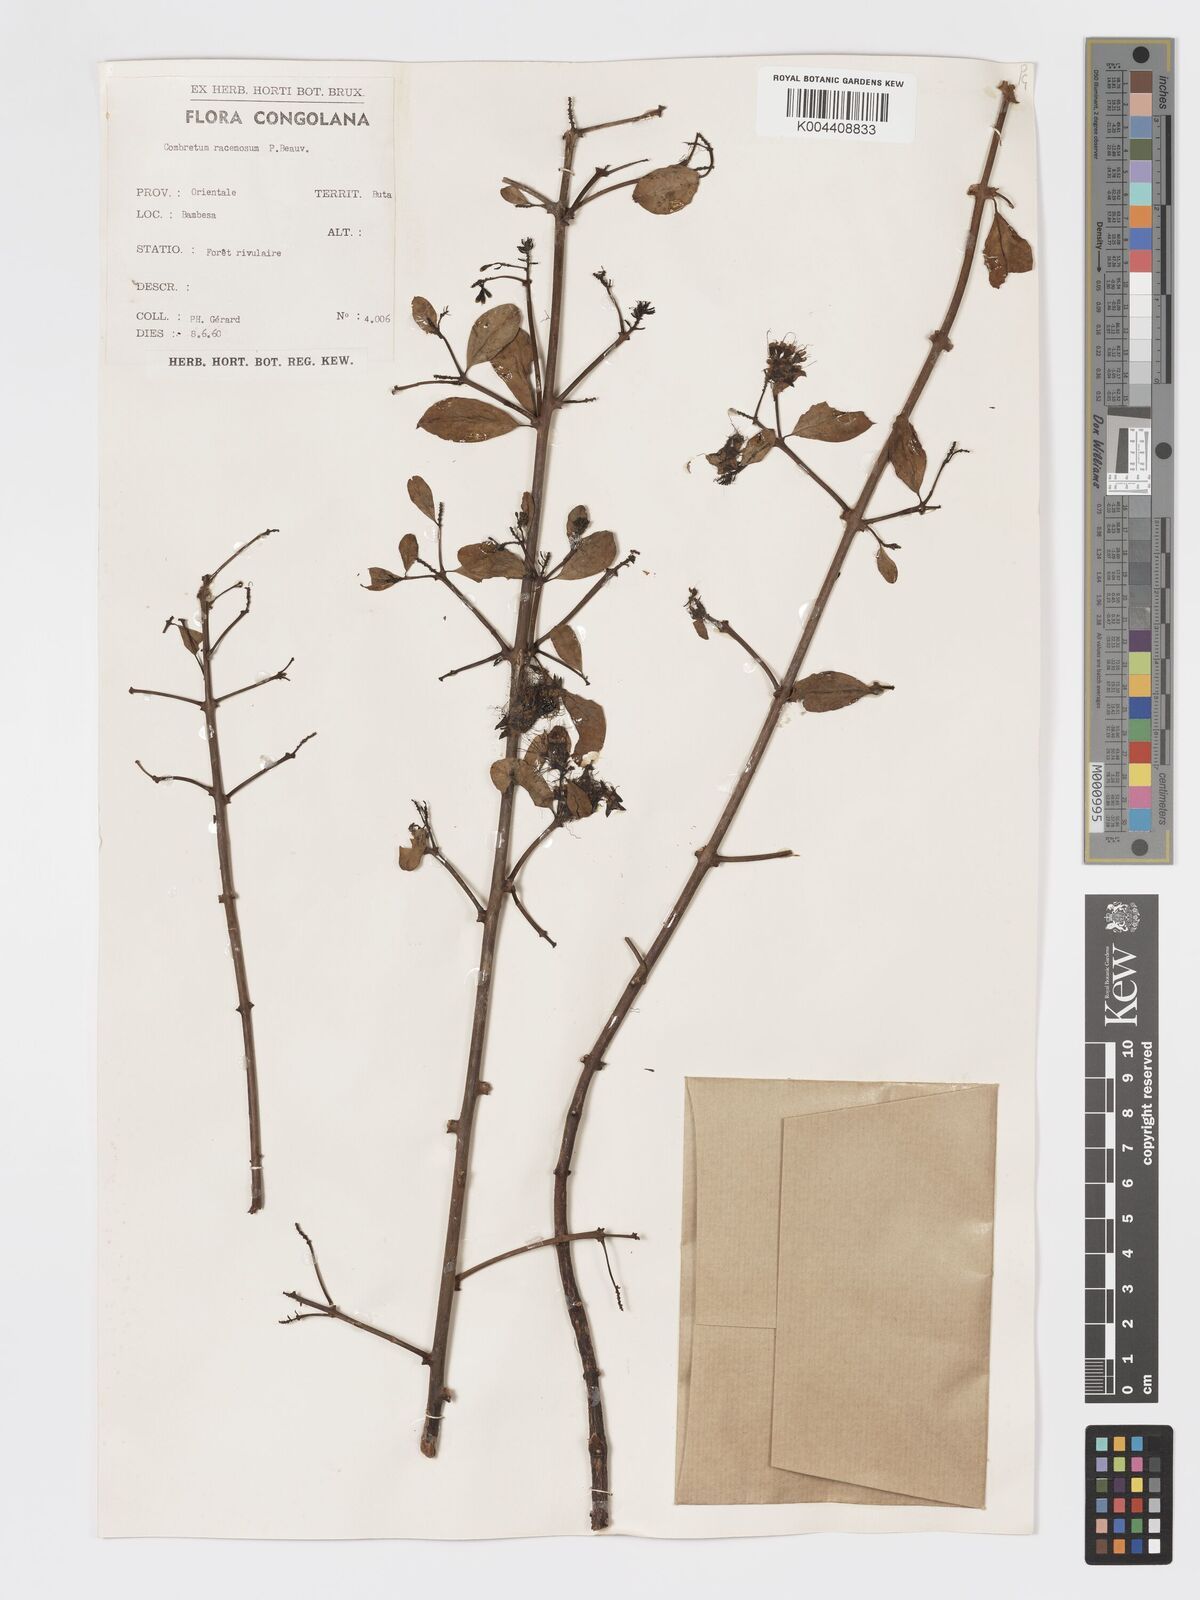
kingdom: Plantae
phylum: Tracheophyta
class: Magnoliopsida
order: Myrtales
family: Combretaceae
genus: Combretum
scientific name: Combretum racemosum
